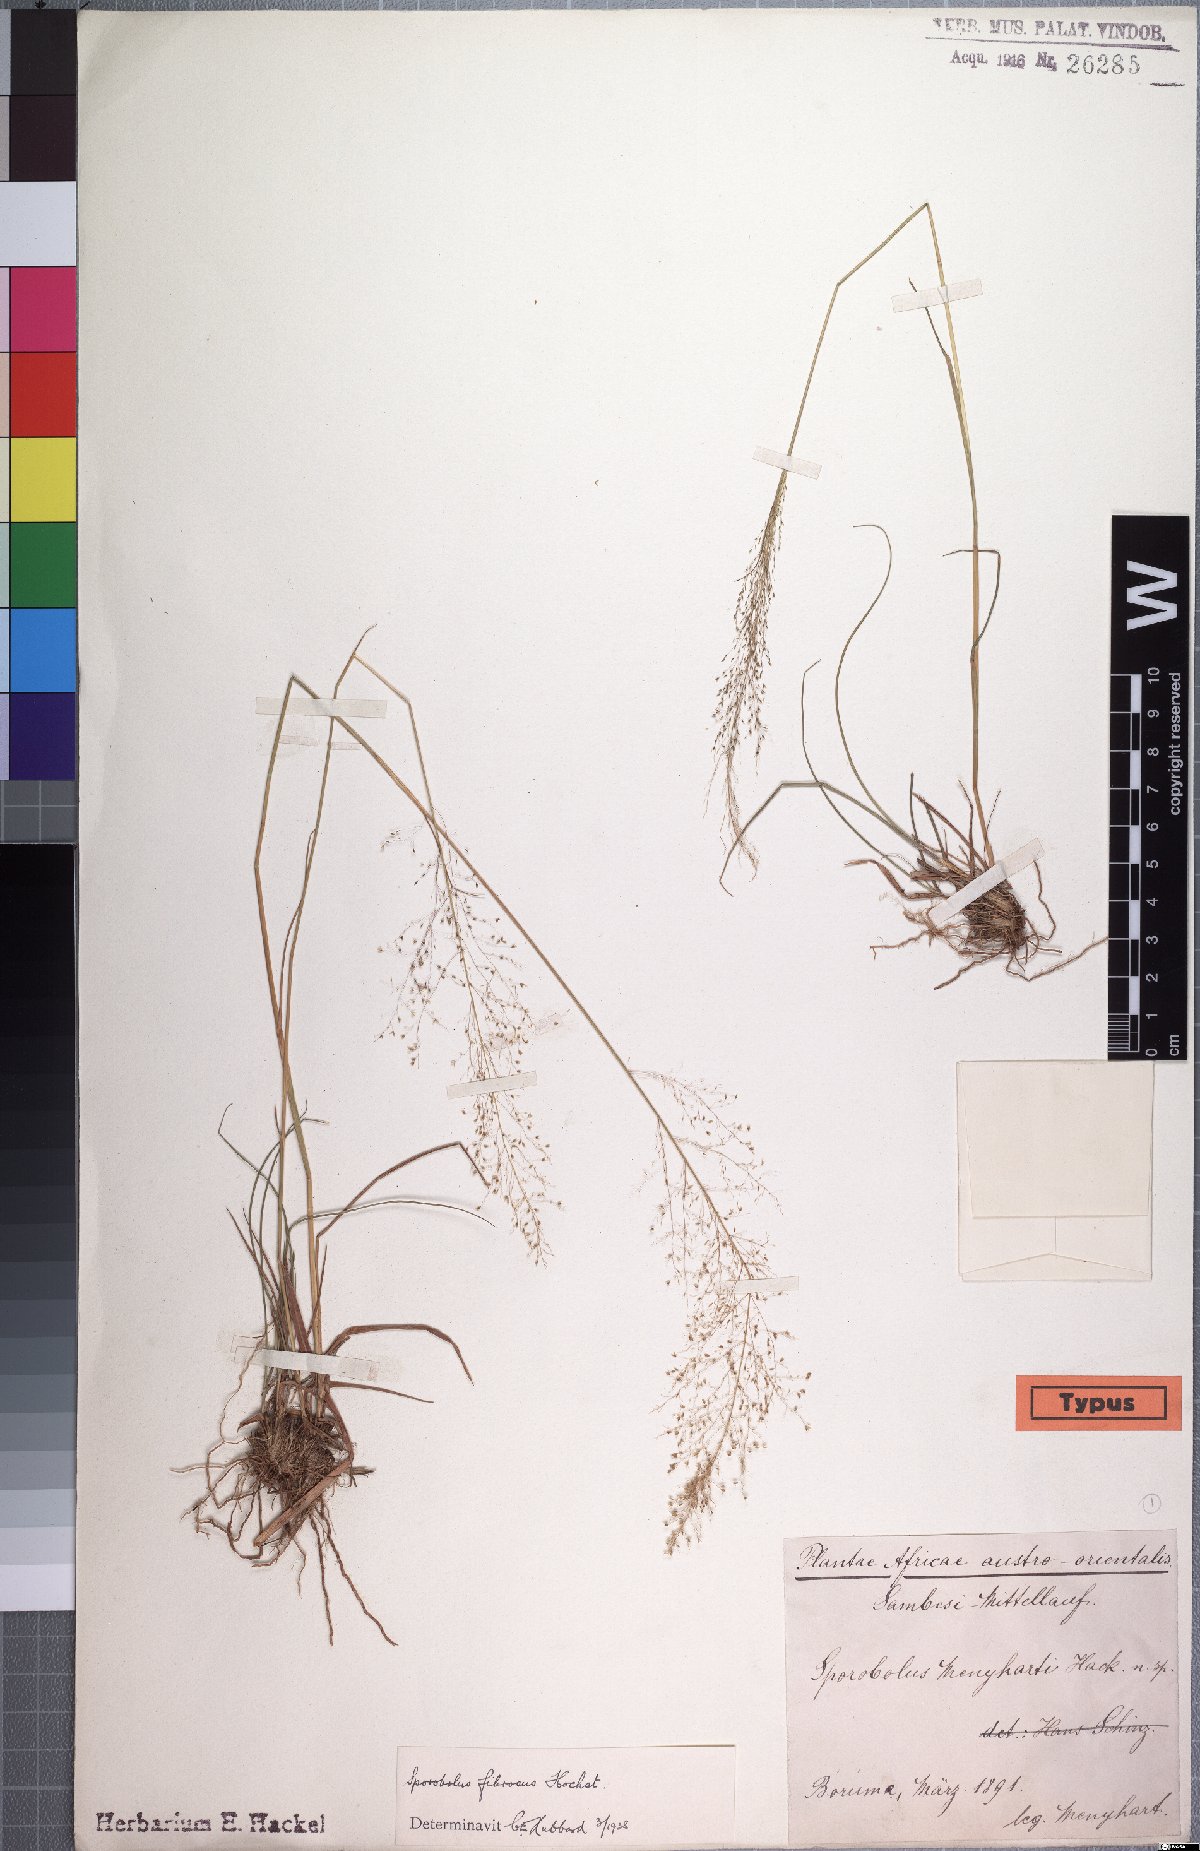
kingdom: Plantae
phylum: Tracheophyta
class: Liliopsida
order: Poales
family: Poaceae
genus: Sporobolus
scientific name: Sporobolus festivus
